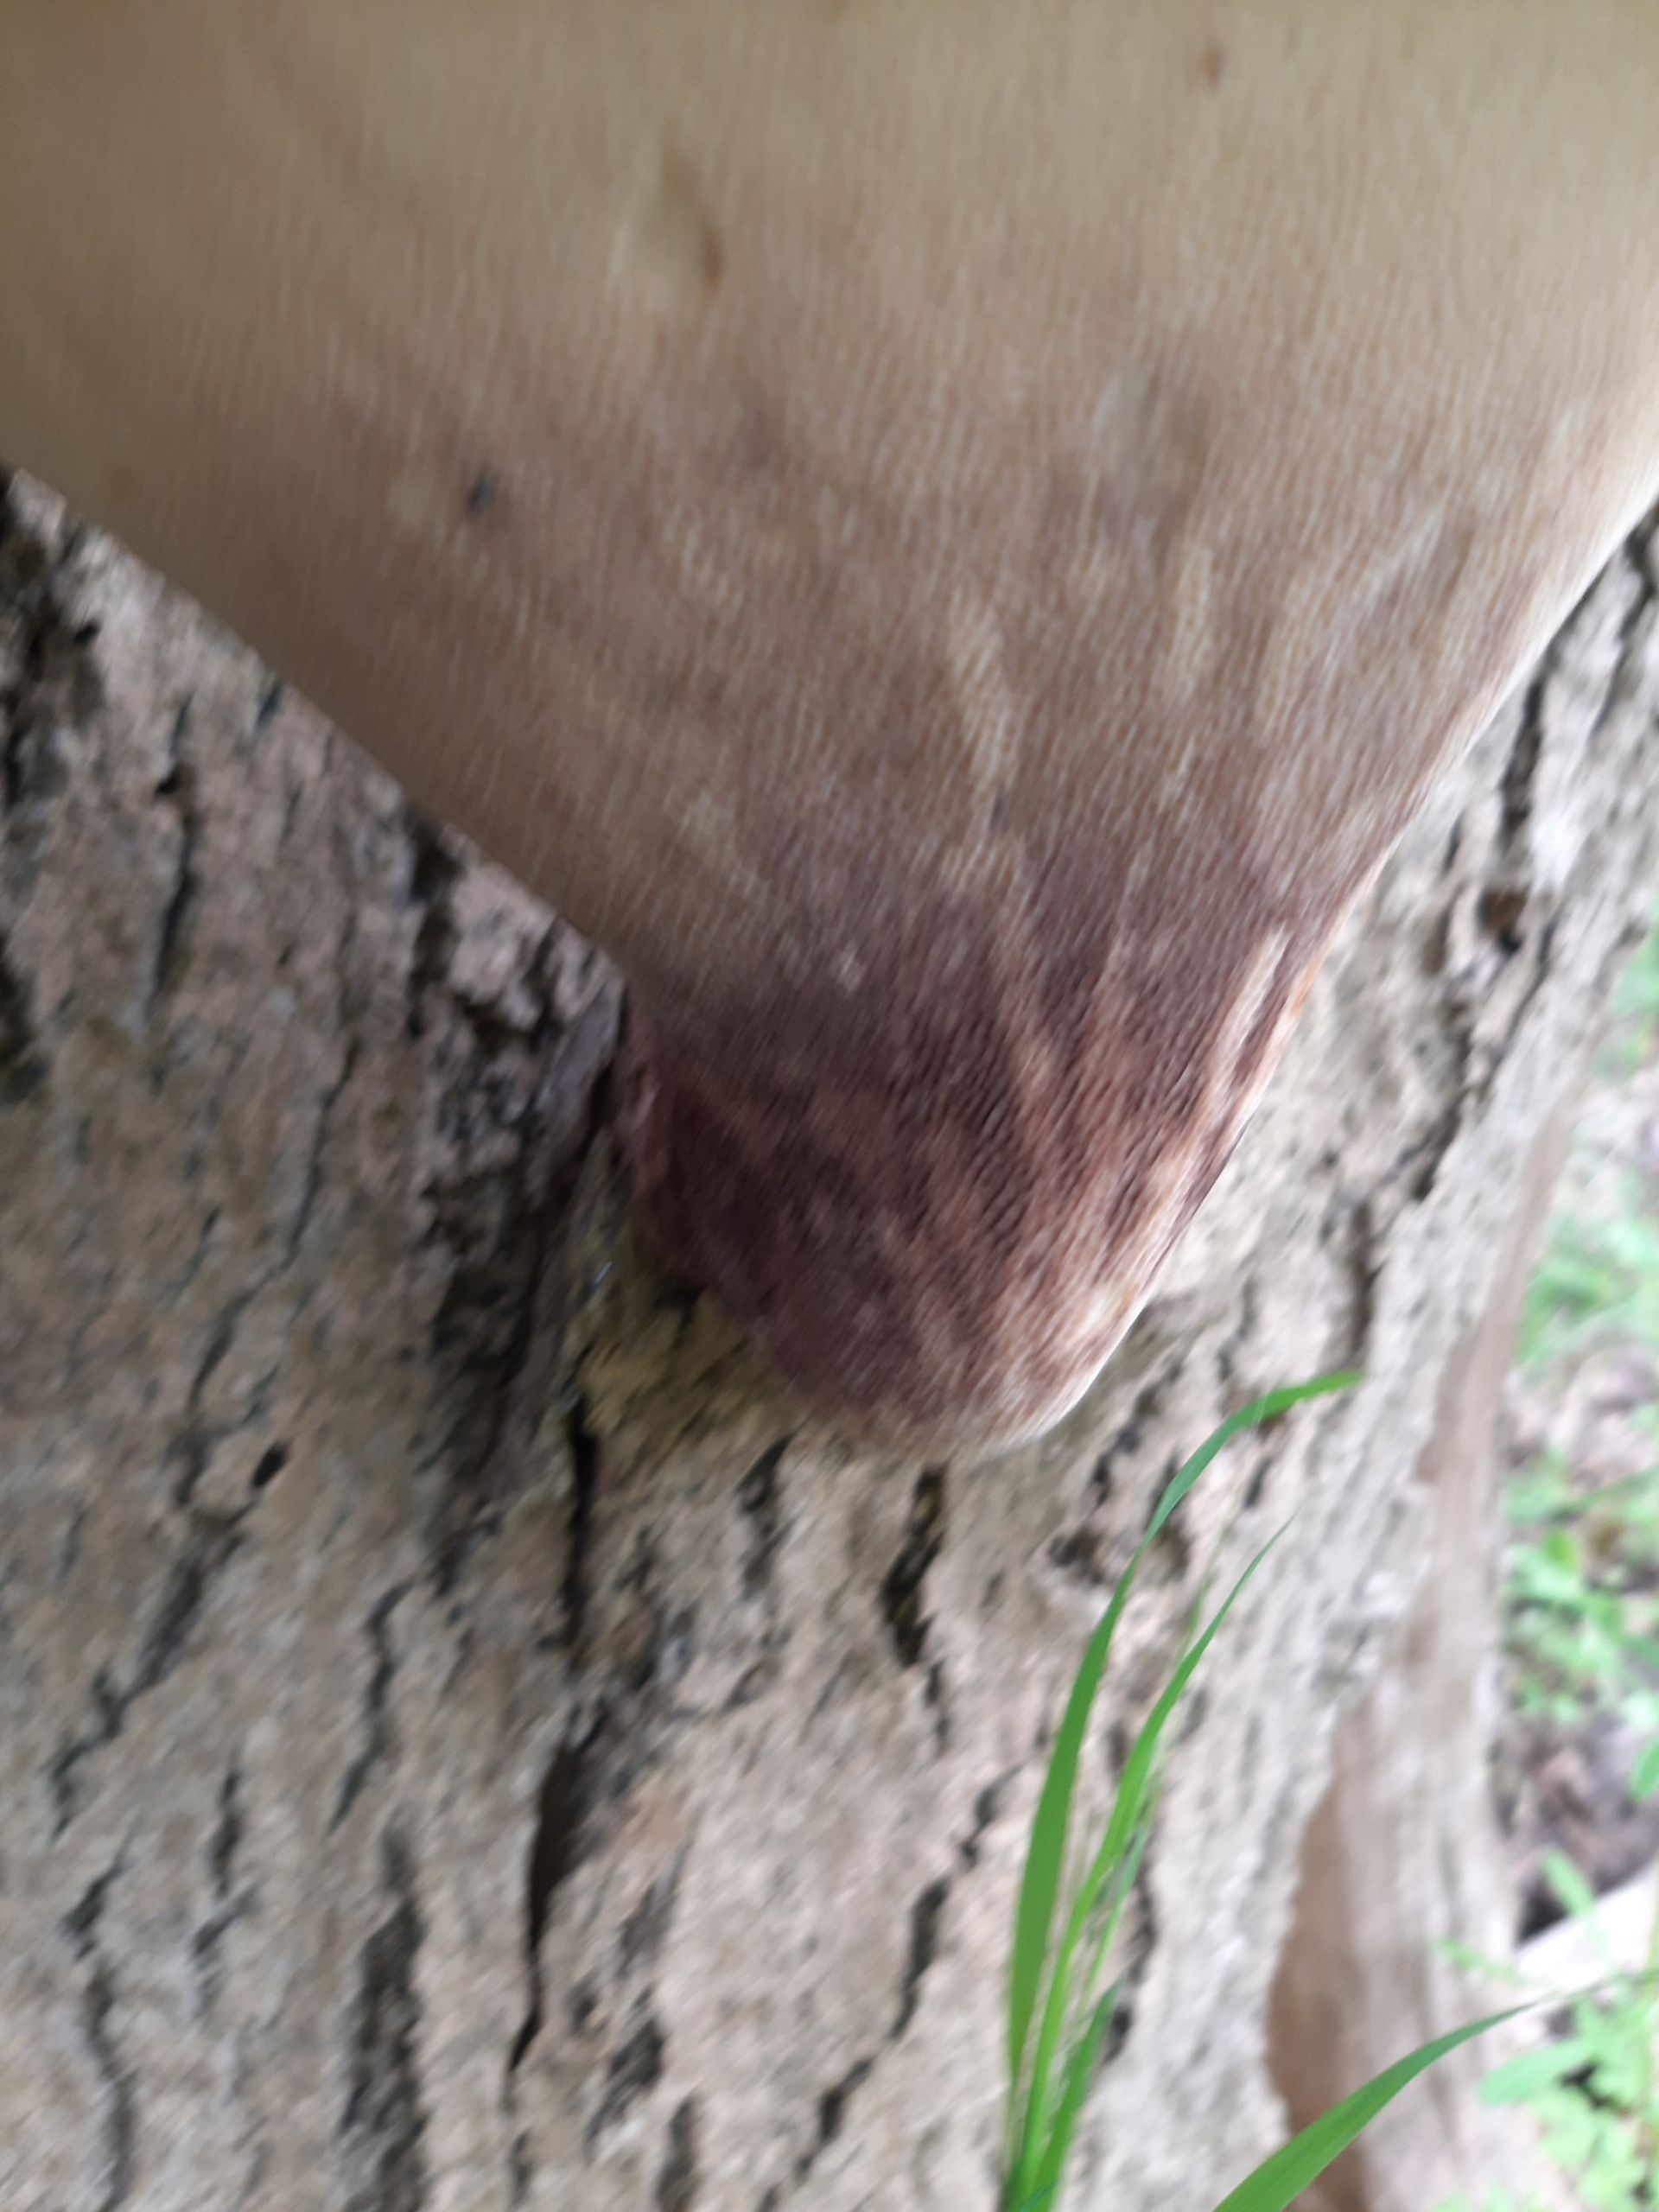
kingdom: Fungi
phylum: Basidiomycota
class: Agaricomycetes
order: Polyporales
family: Polyporaceae
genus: Cerioporus
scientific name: Cerioporus squamosus
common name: Skællet stilkporesvamp
